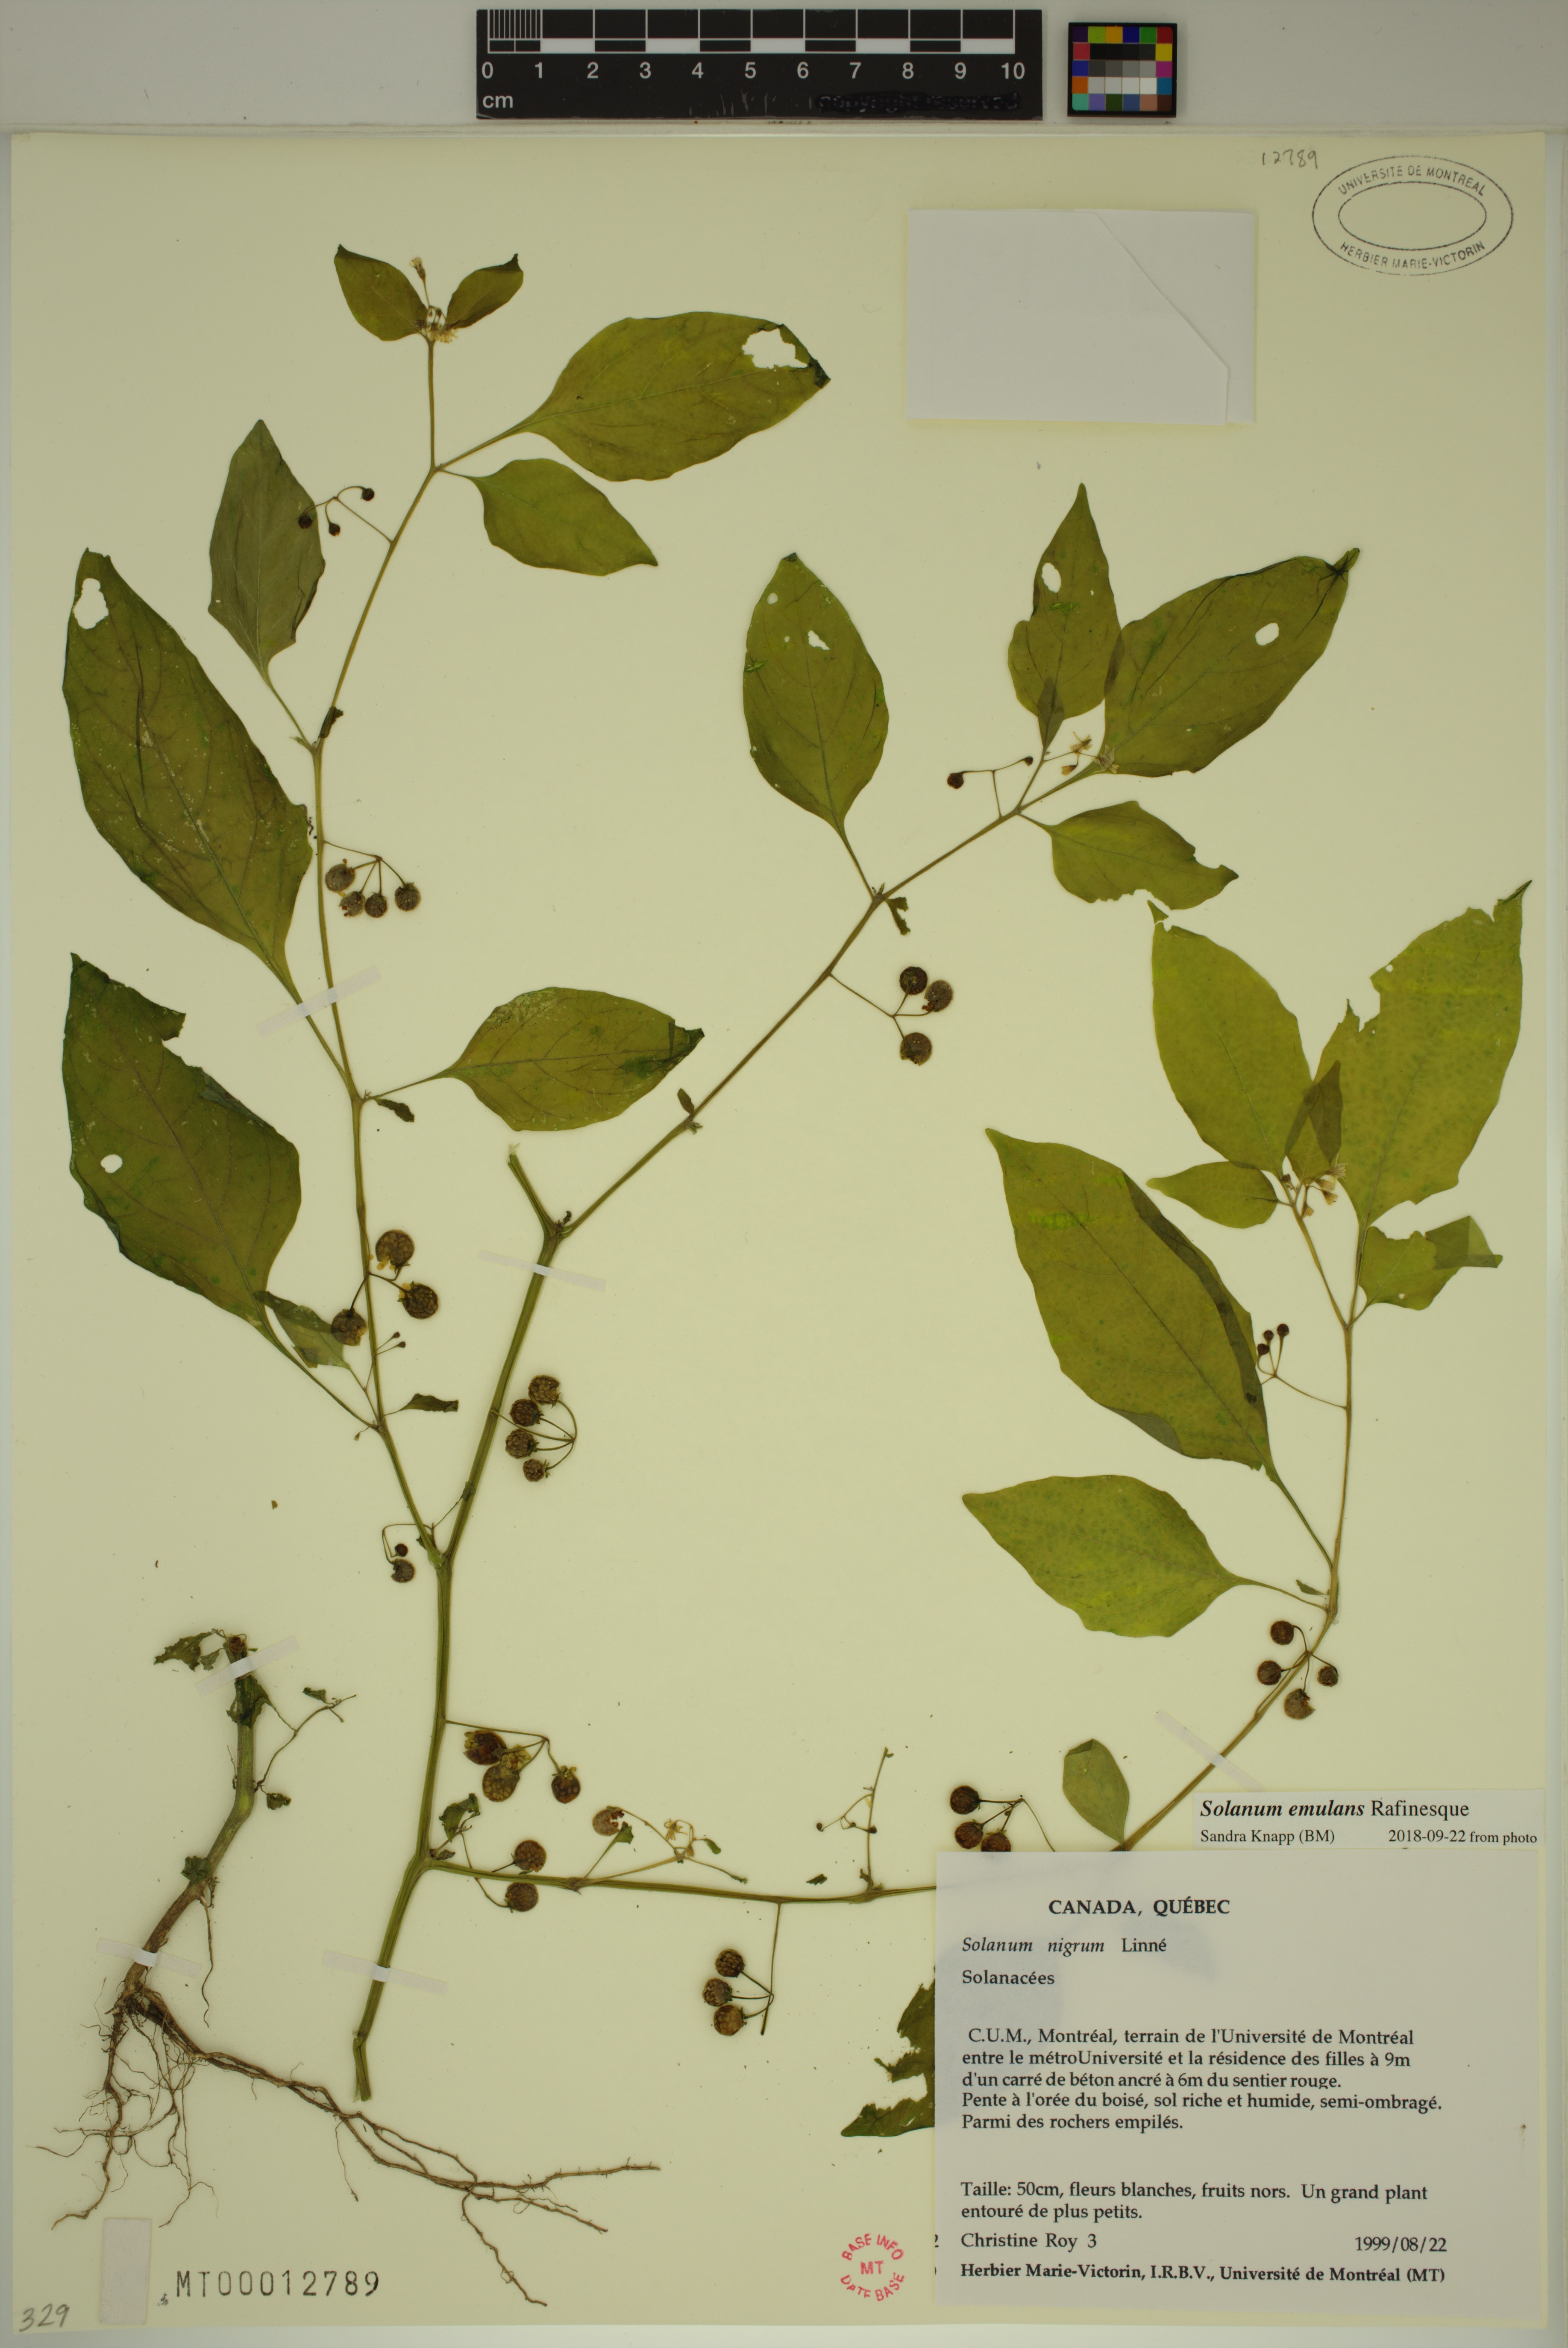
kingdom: Plantae
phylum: Tracheophyta
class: Magnoliopsida
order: Solanales
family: Solanaceae
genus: Solanum
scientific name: Solanum emulans
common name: Eastern black nightshade
